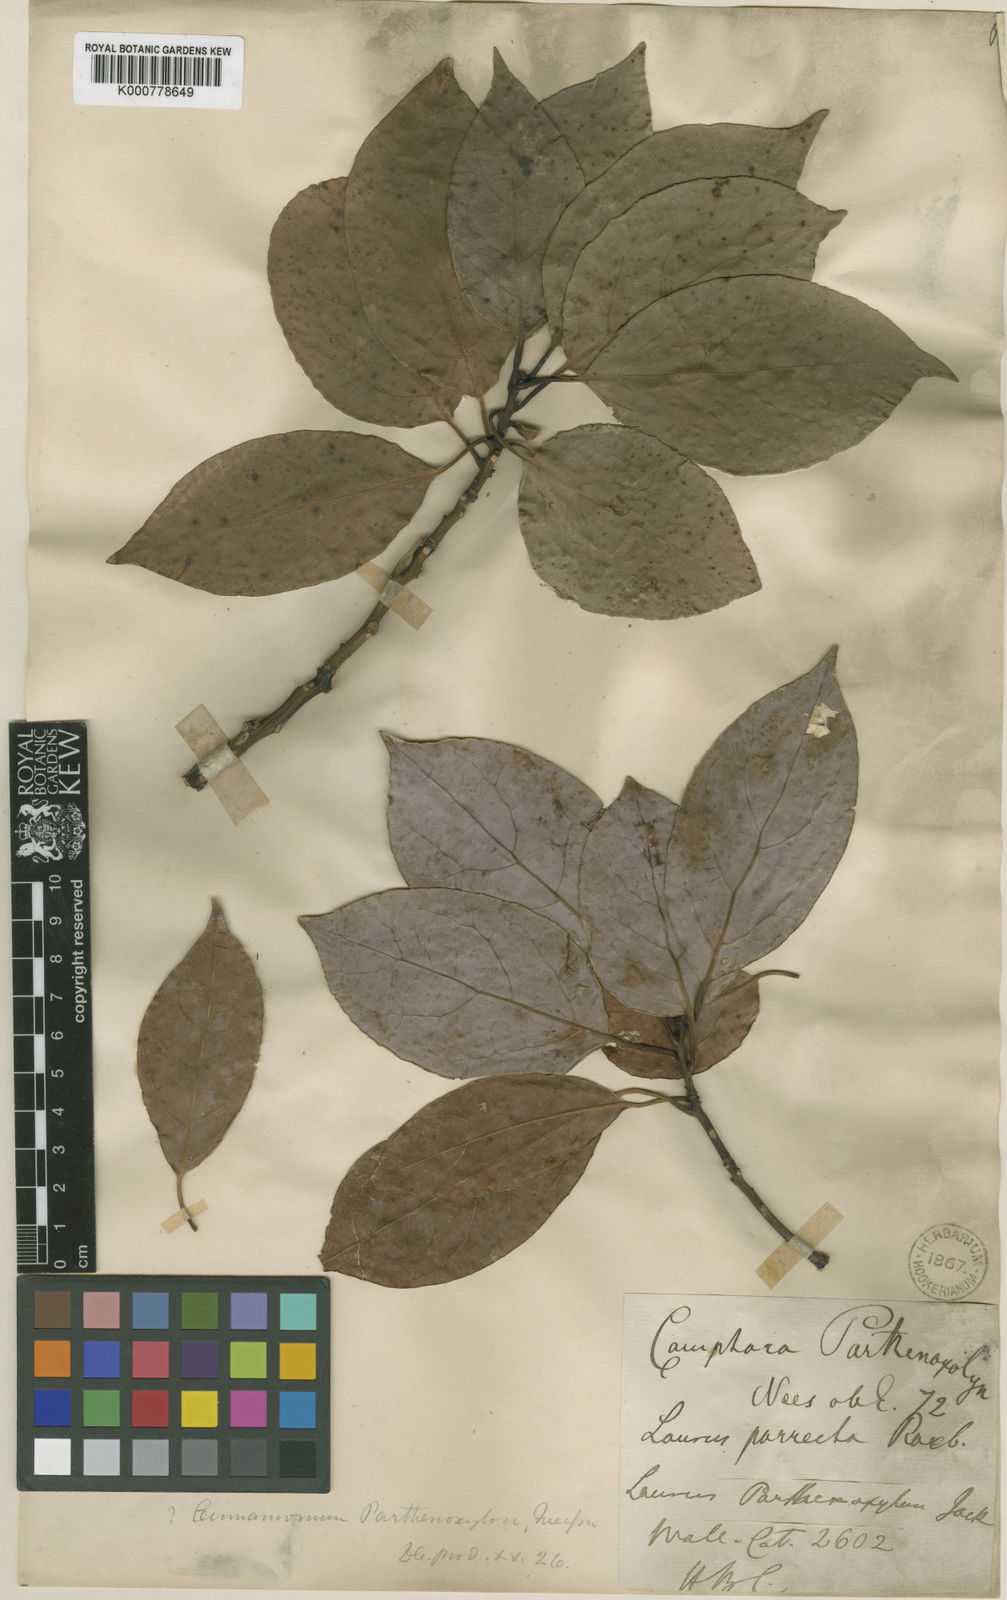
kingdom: Plantae
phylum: Tracheophyta
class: Magnoliopsida
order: Laurales
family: Lauraceae
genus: Cinnamomum
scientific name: Cinnamomum
